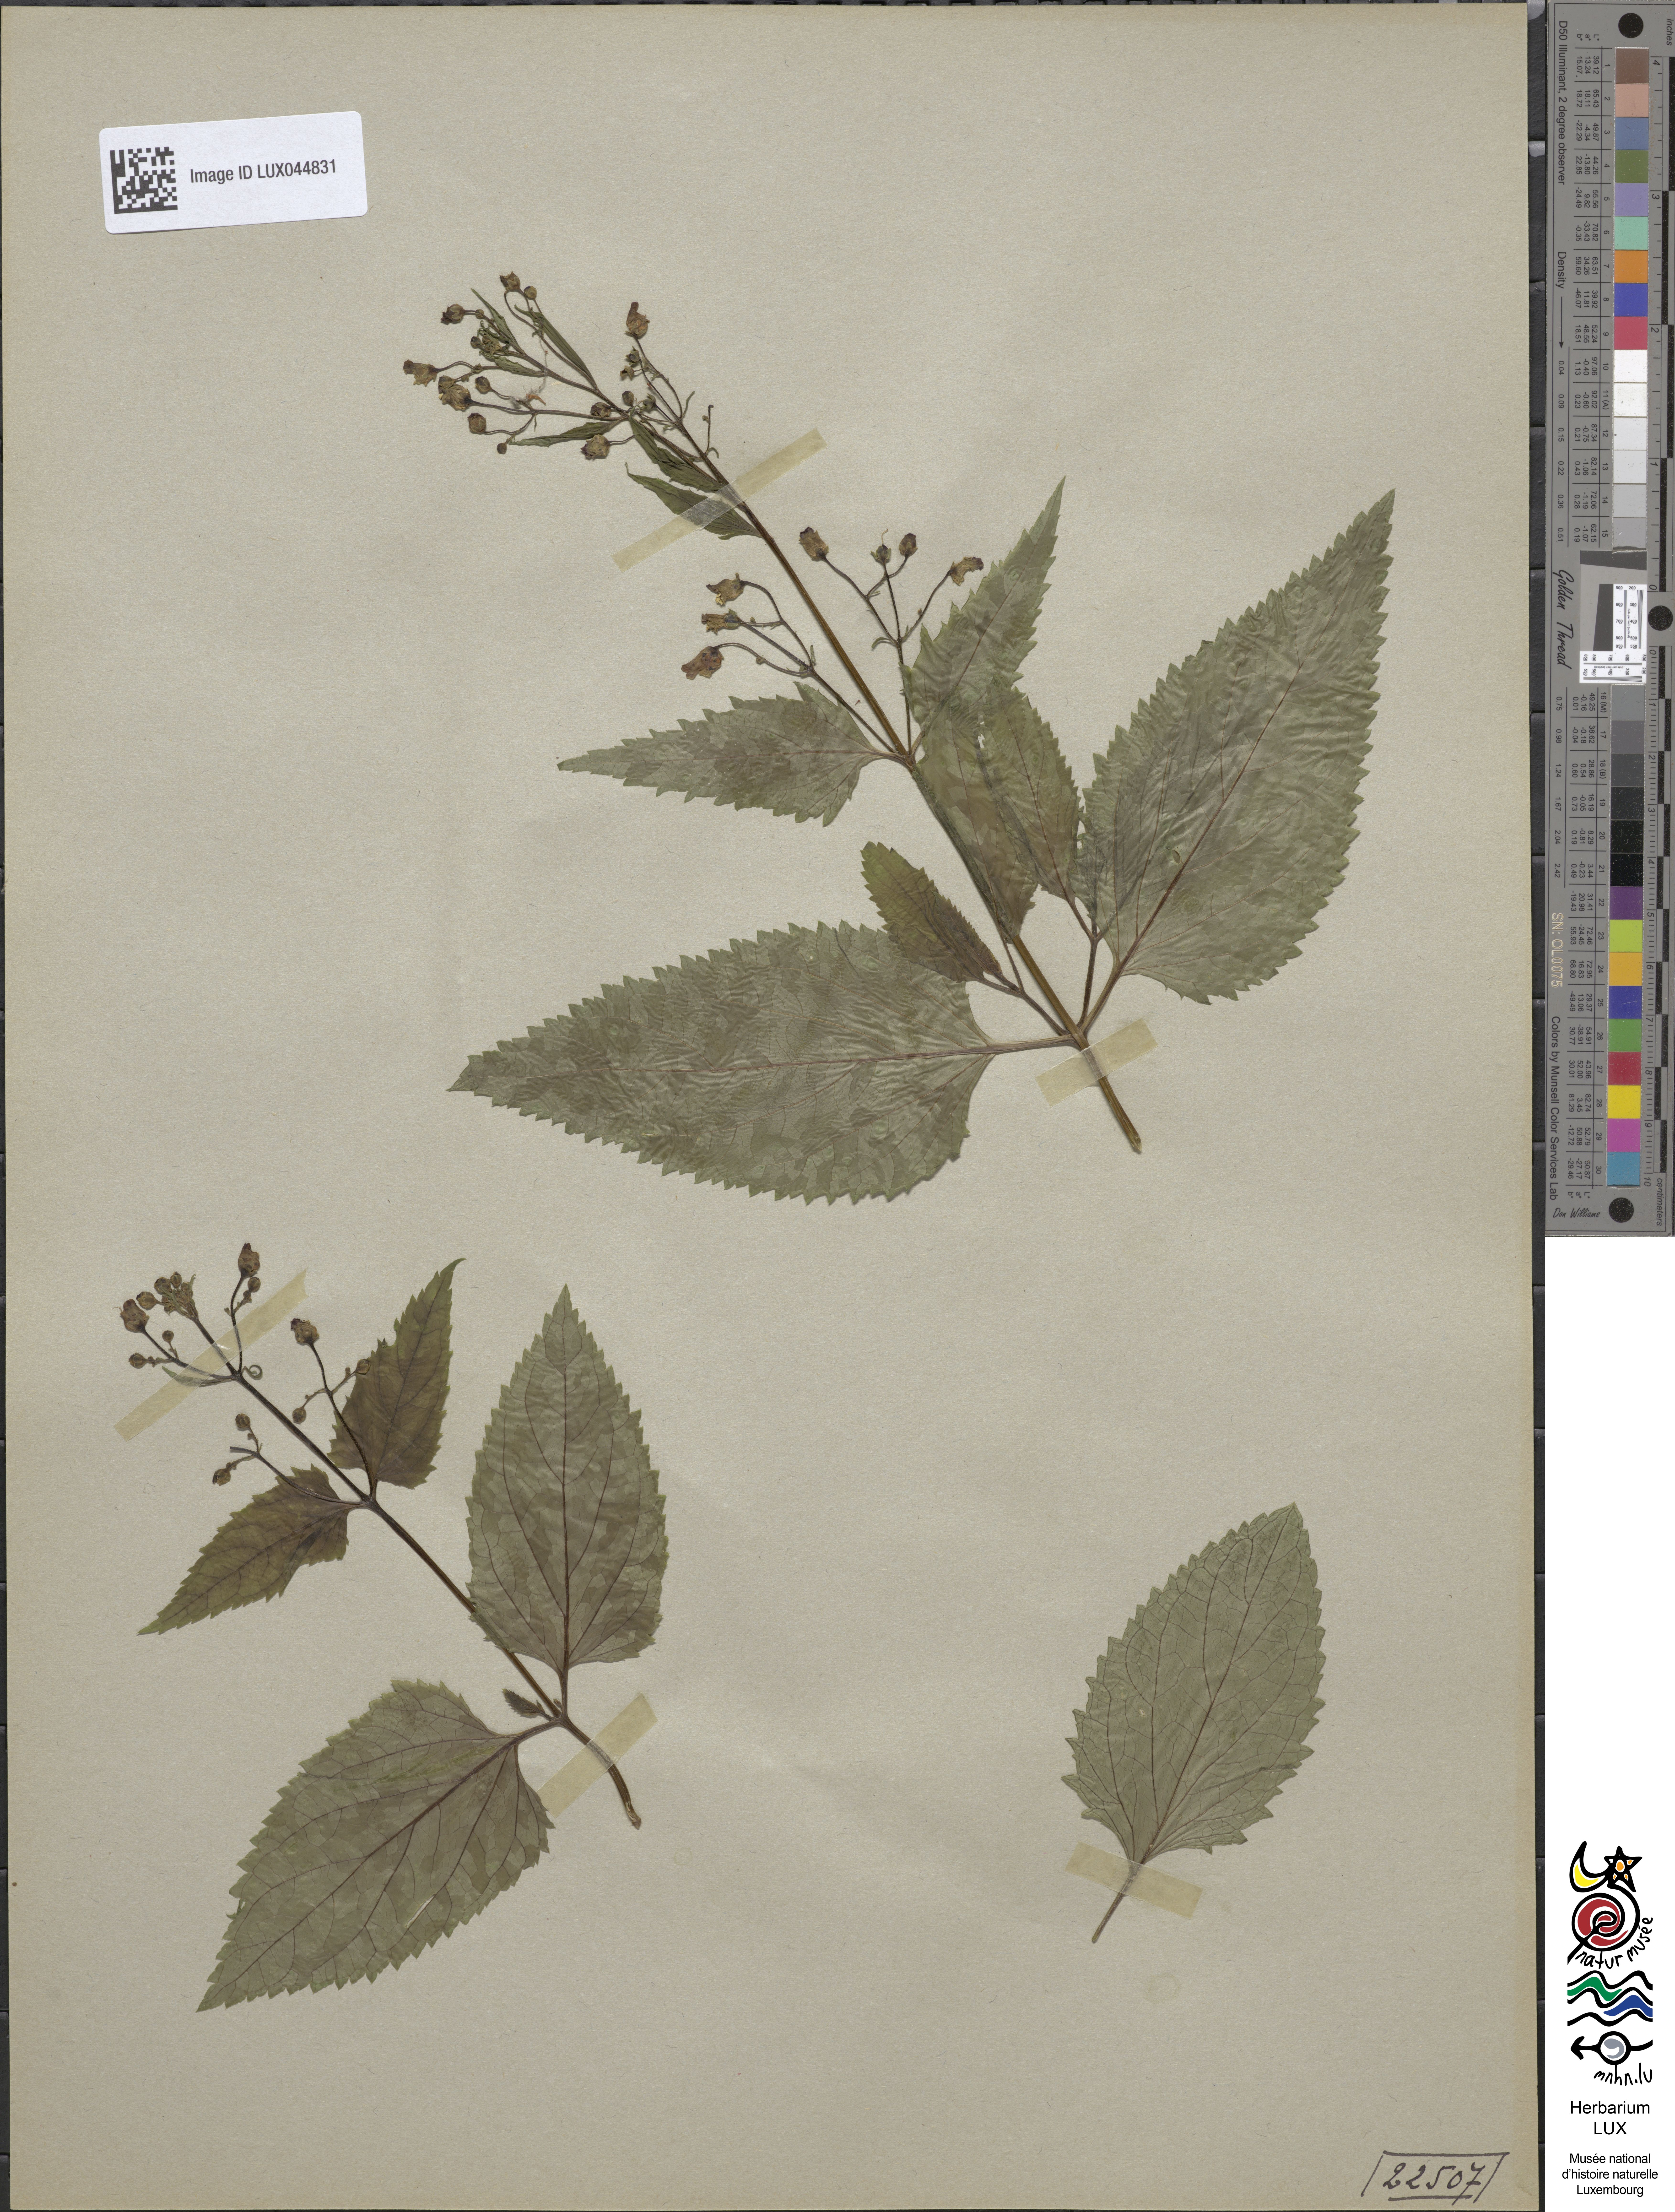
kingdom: Plantae
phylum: Tracheophyta
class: Magnoliopsida
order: Lamiales
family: Scrophulariaceae
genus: Scrophularia
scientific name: Scrophularia nodosa
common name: Common figwort
